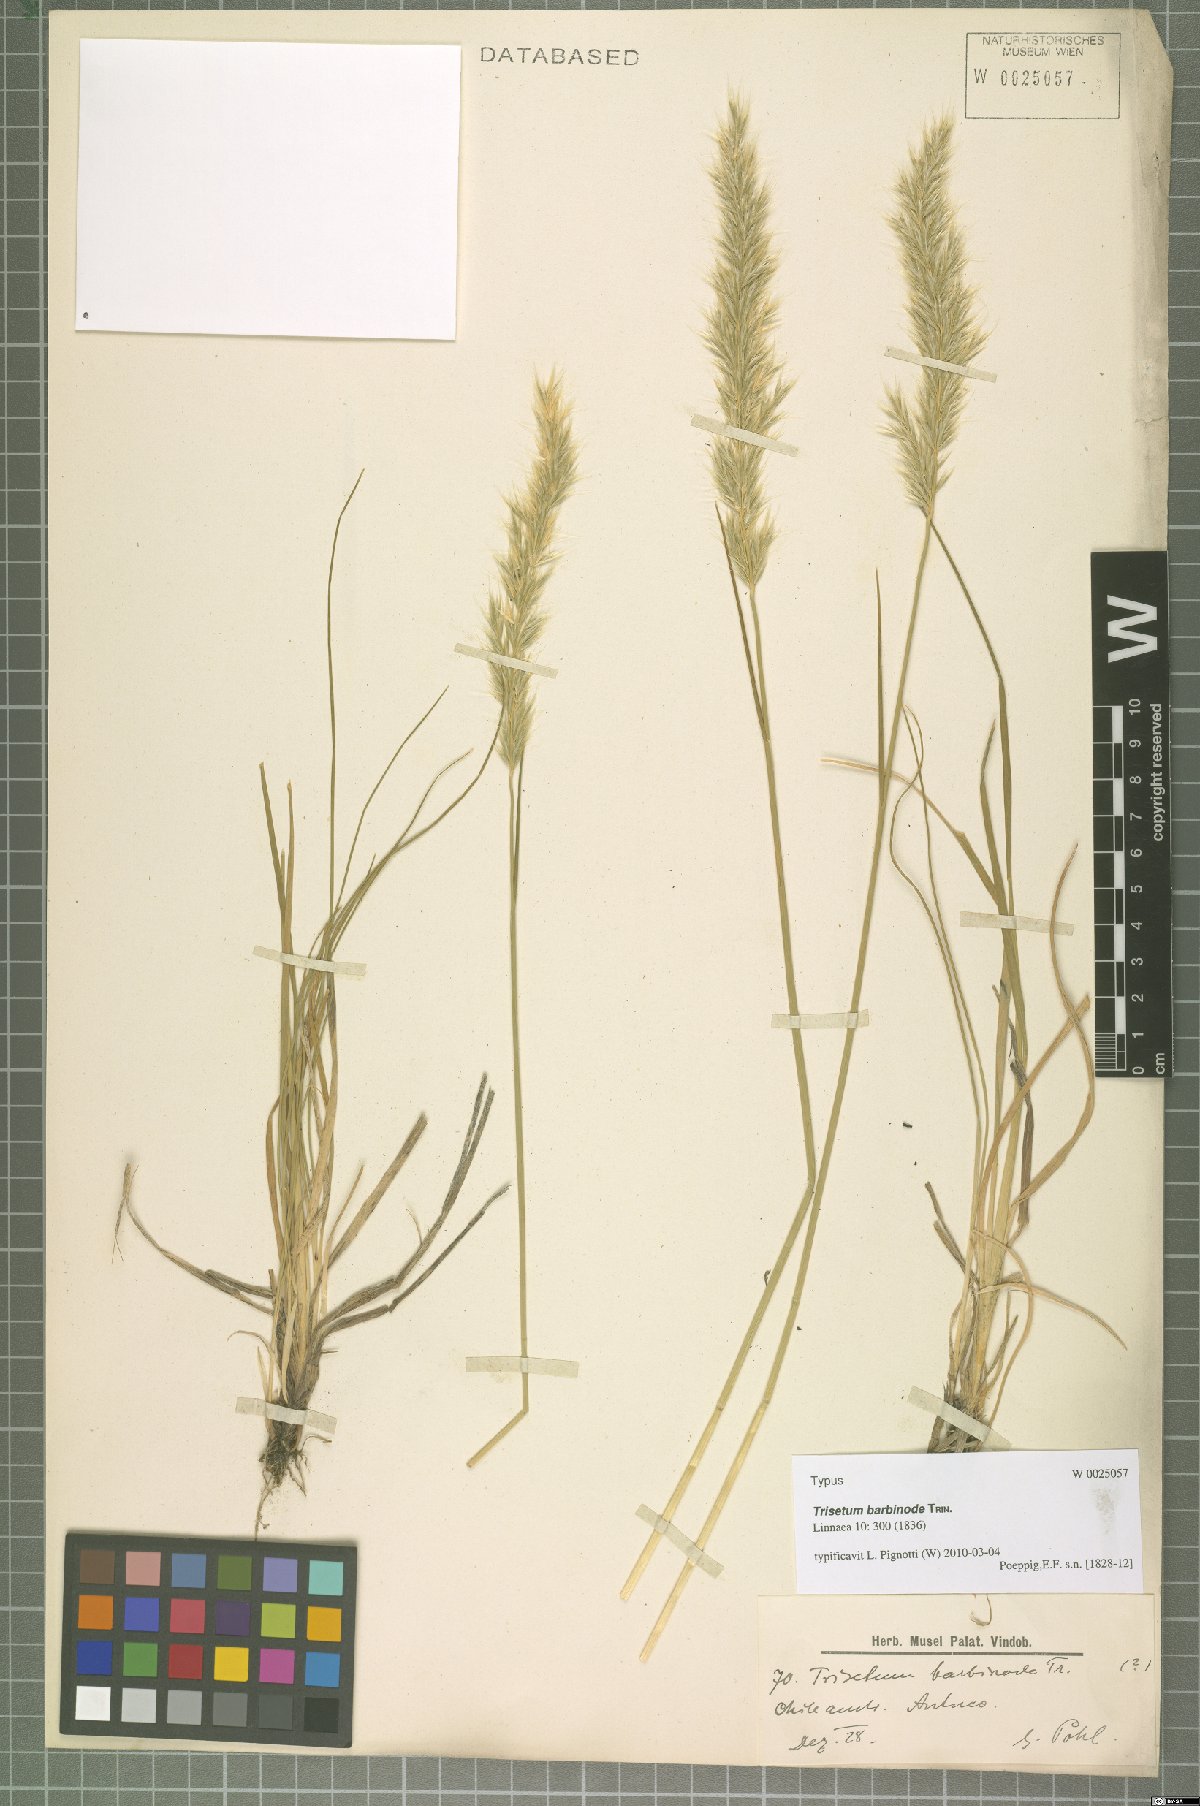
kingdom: Plantae
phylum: Tracheophyta
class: Liliopsida
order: Poales
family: Poaceae
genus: Koeleria
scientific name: Koeleria barbinodis
